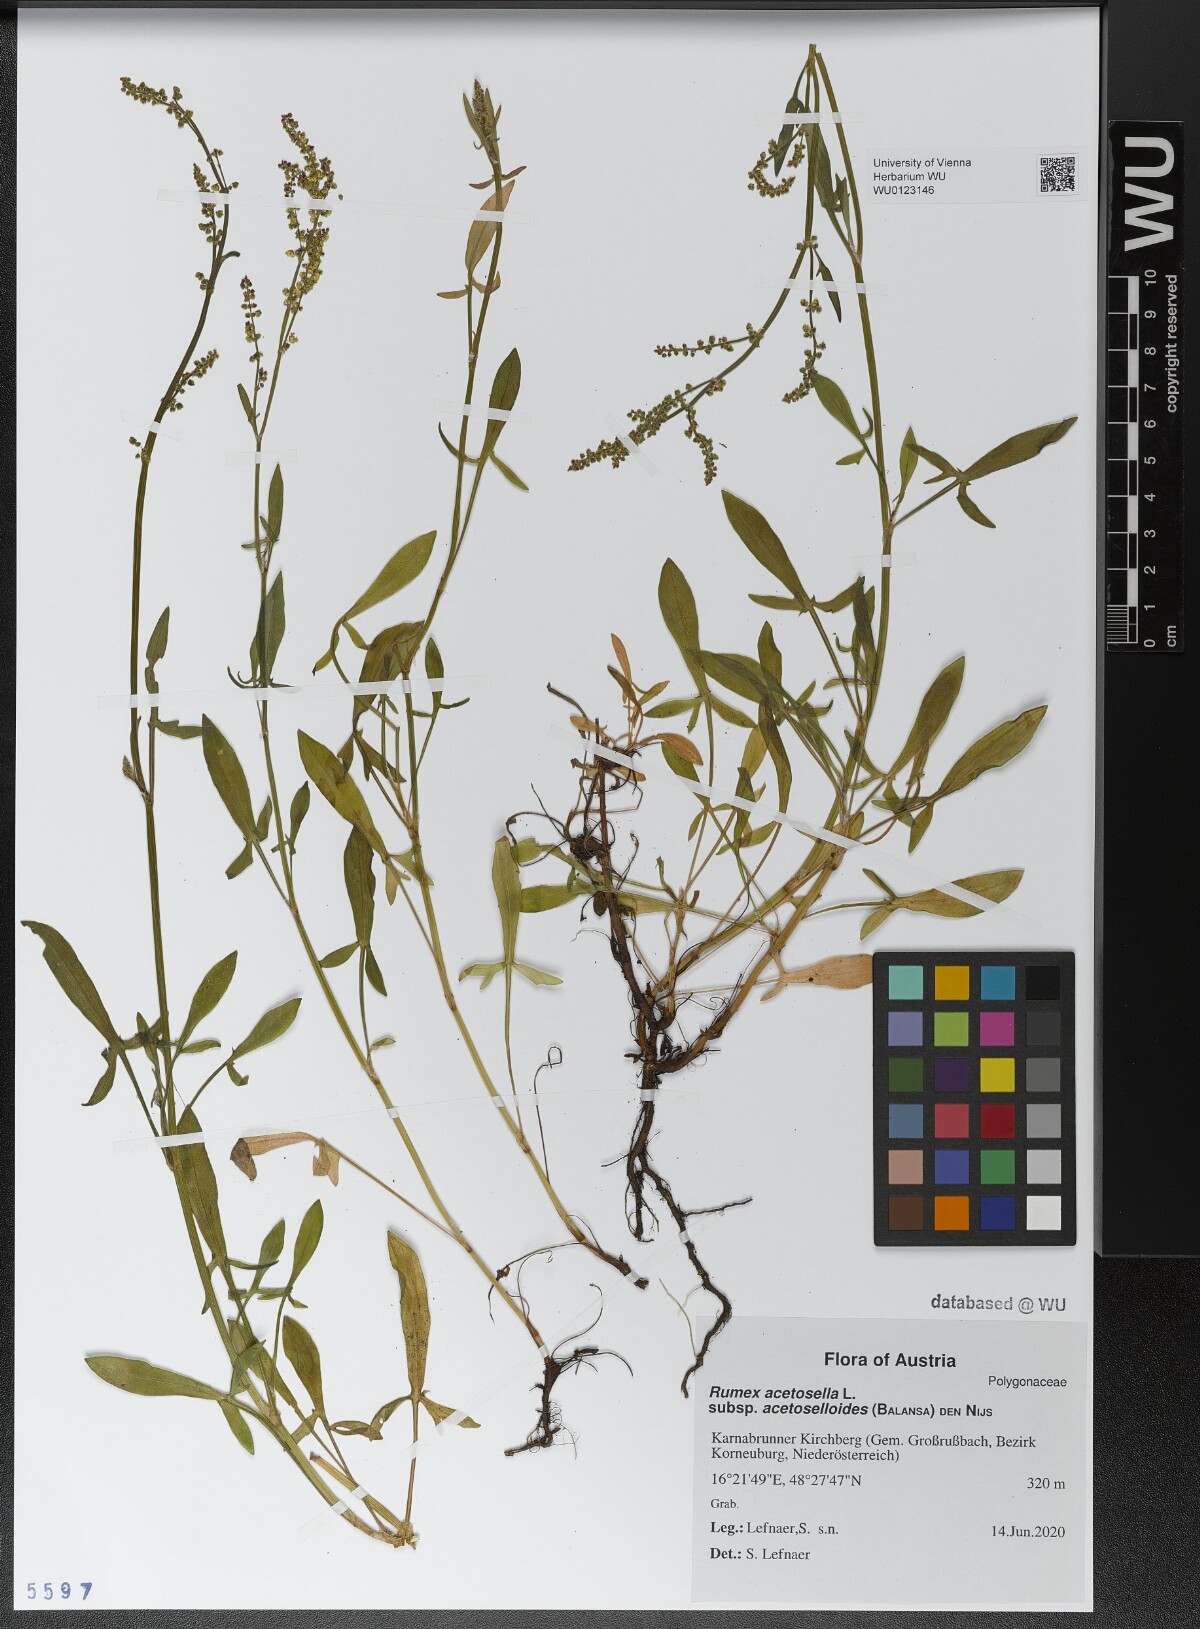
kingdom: Plantae
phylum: Tracheophyta
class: Magnoliopsida
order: Caryophyllales
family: Polygonaceae
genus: Rumex
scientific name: Rumex acetosella
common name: Common sheep sorrel
